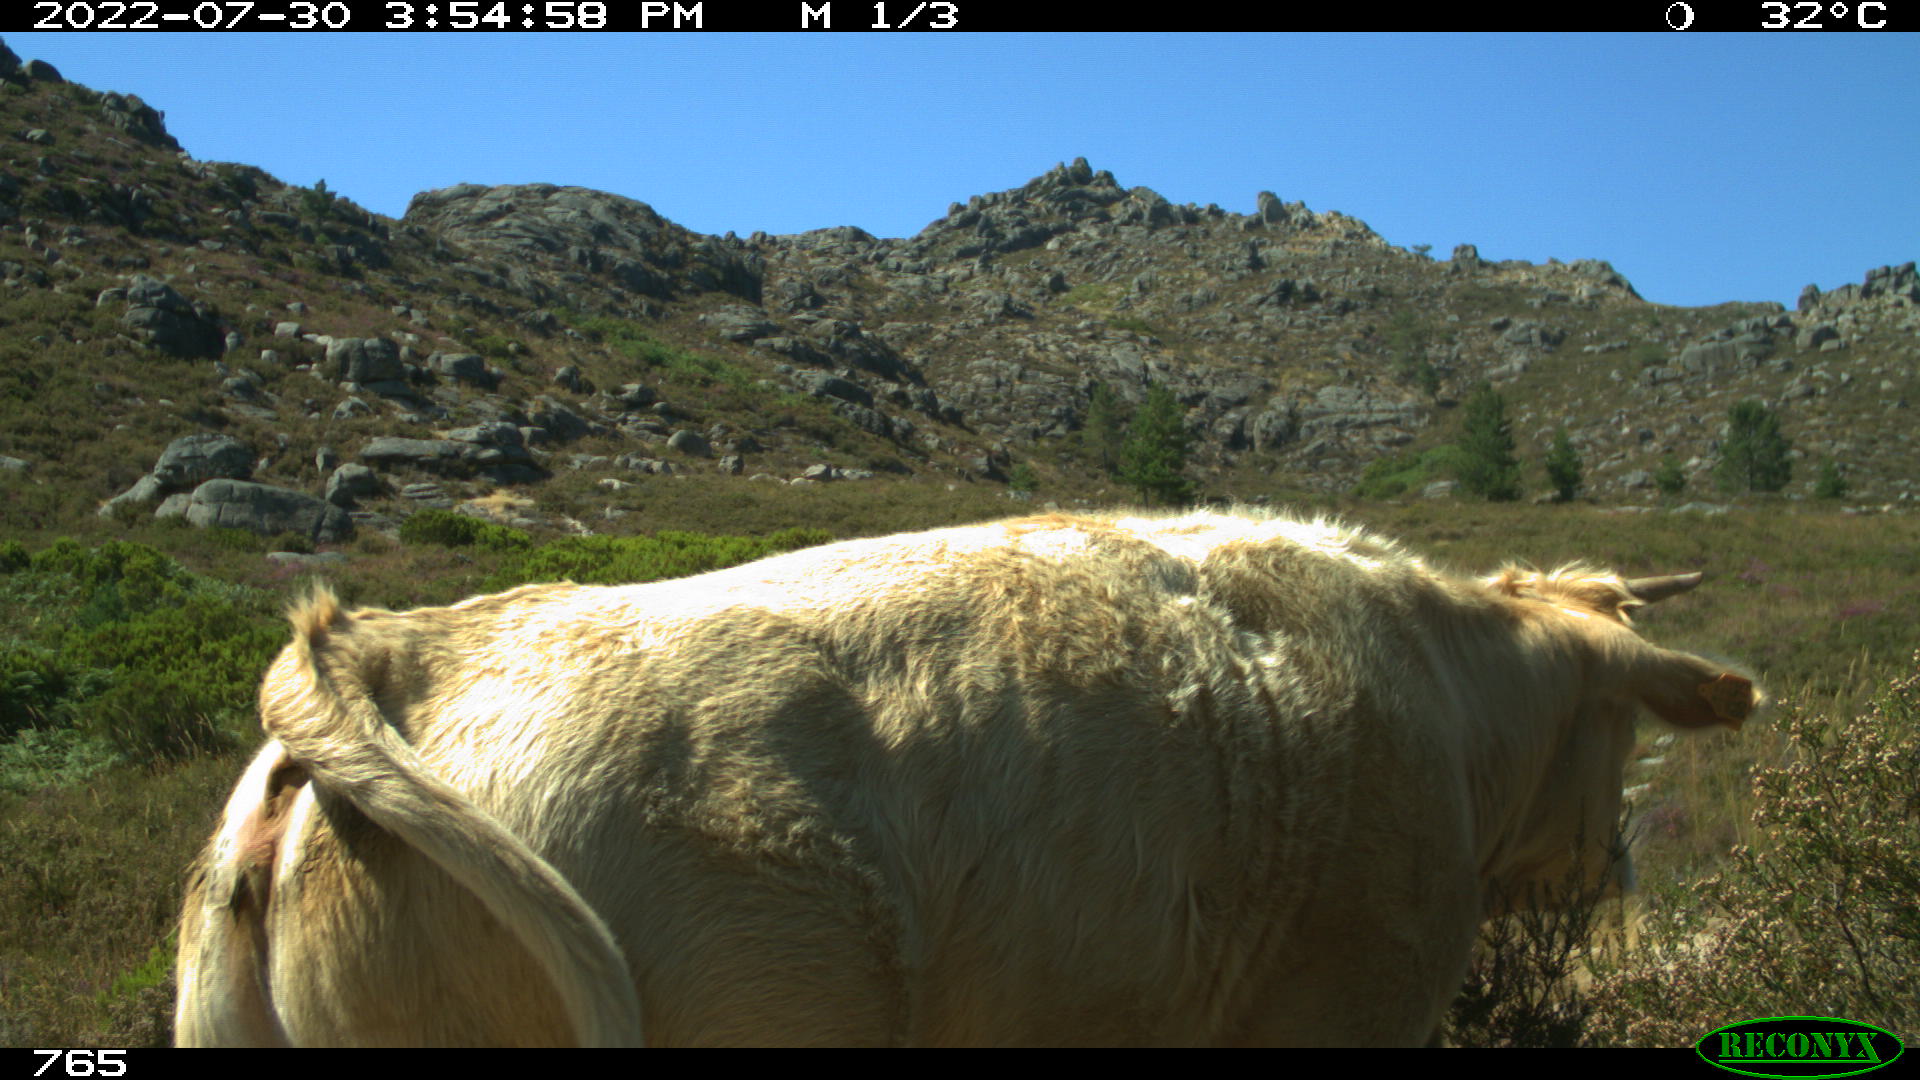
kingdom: Animalia
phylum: Chordata
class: Mammalia
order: Artiodactyla
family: Bovidae
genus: Bos
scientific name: Bos taurus
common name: Domesticated cattle
